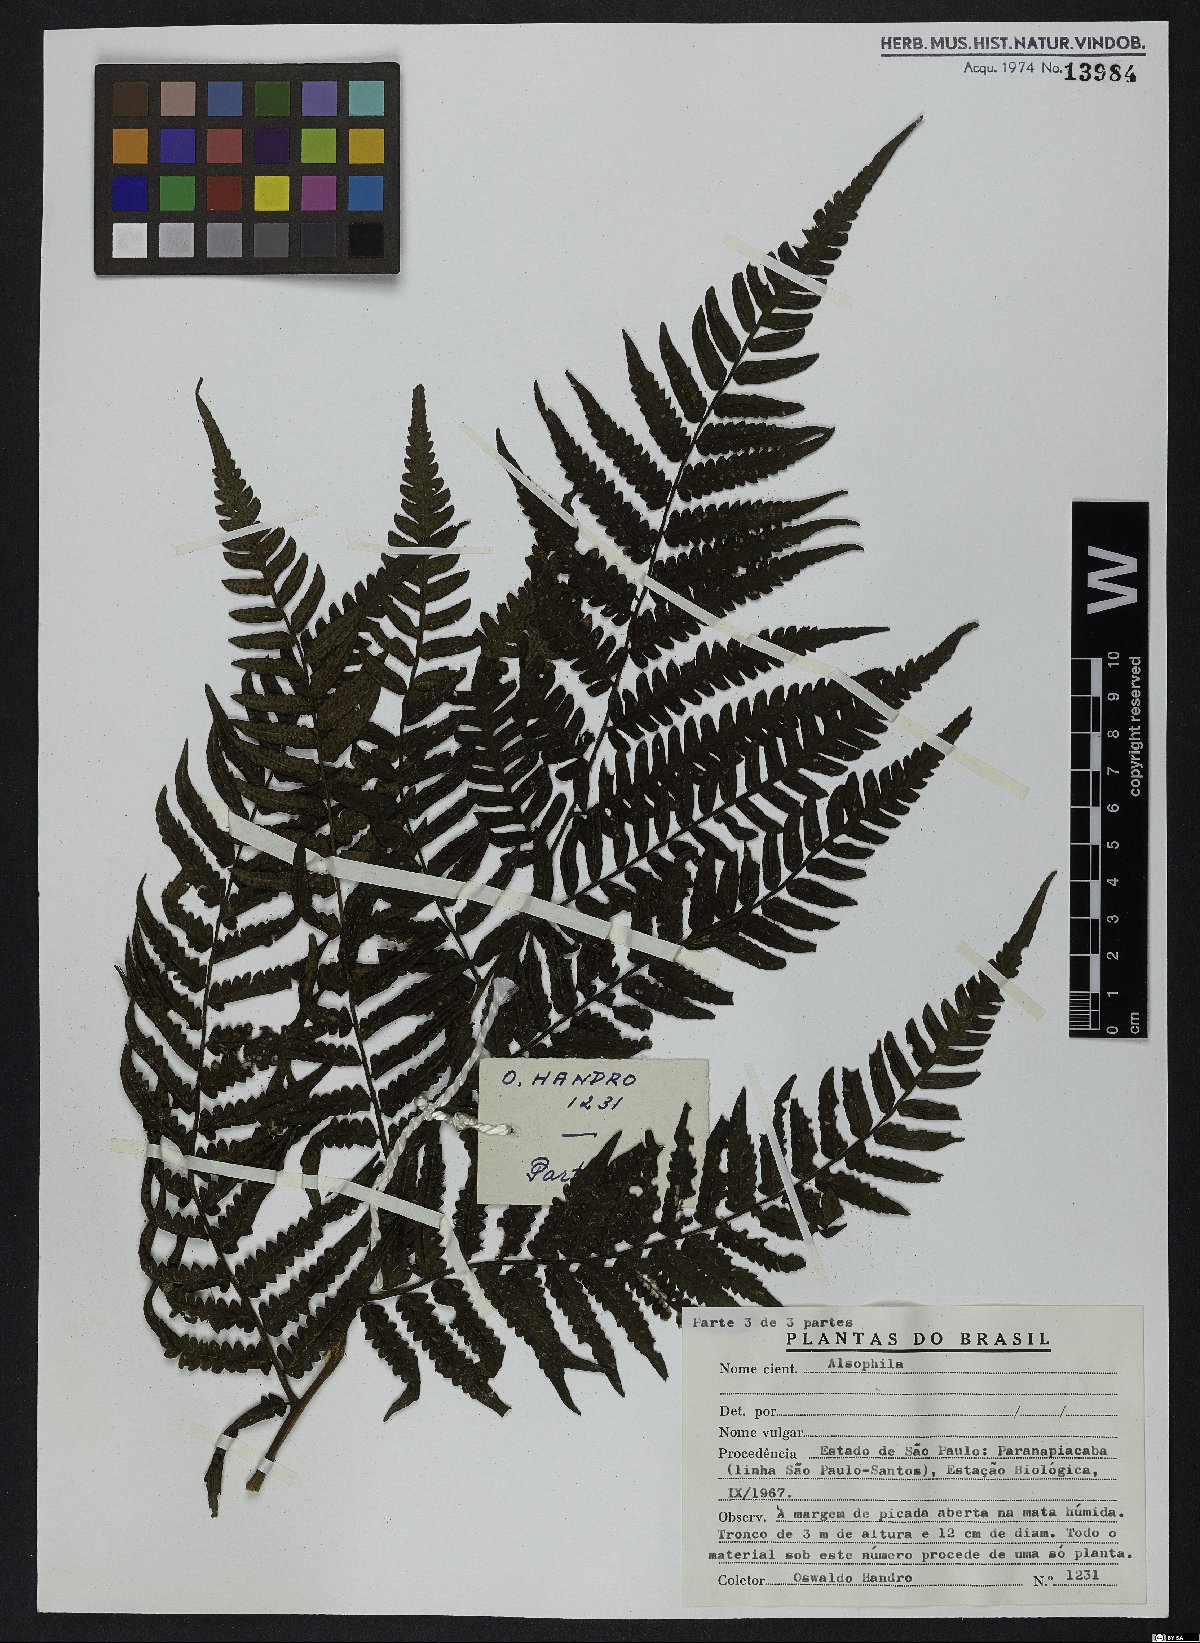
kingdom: Plantae
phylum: Tracheophyta
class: Polypodiopsida
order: Cyatheales
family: Cyatheaceae
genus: Alsophila
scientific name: Alsophila
